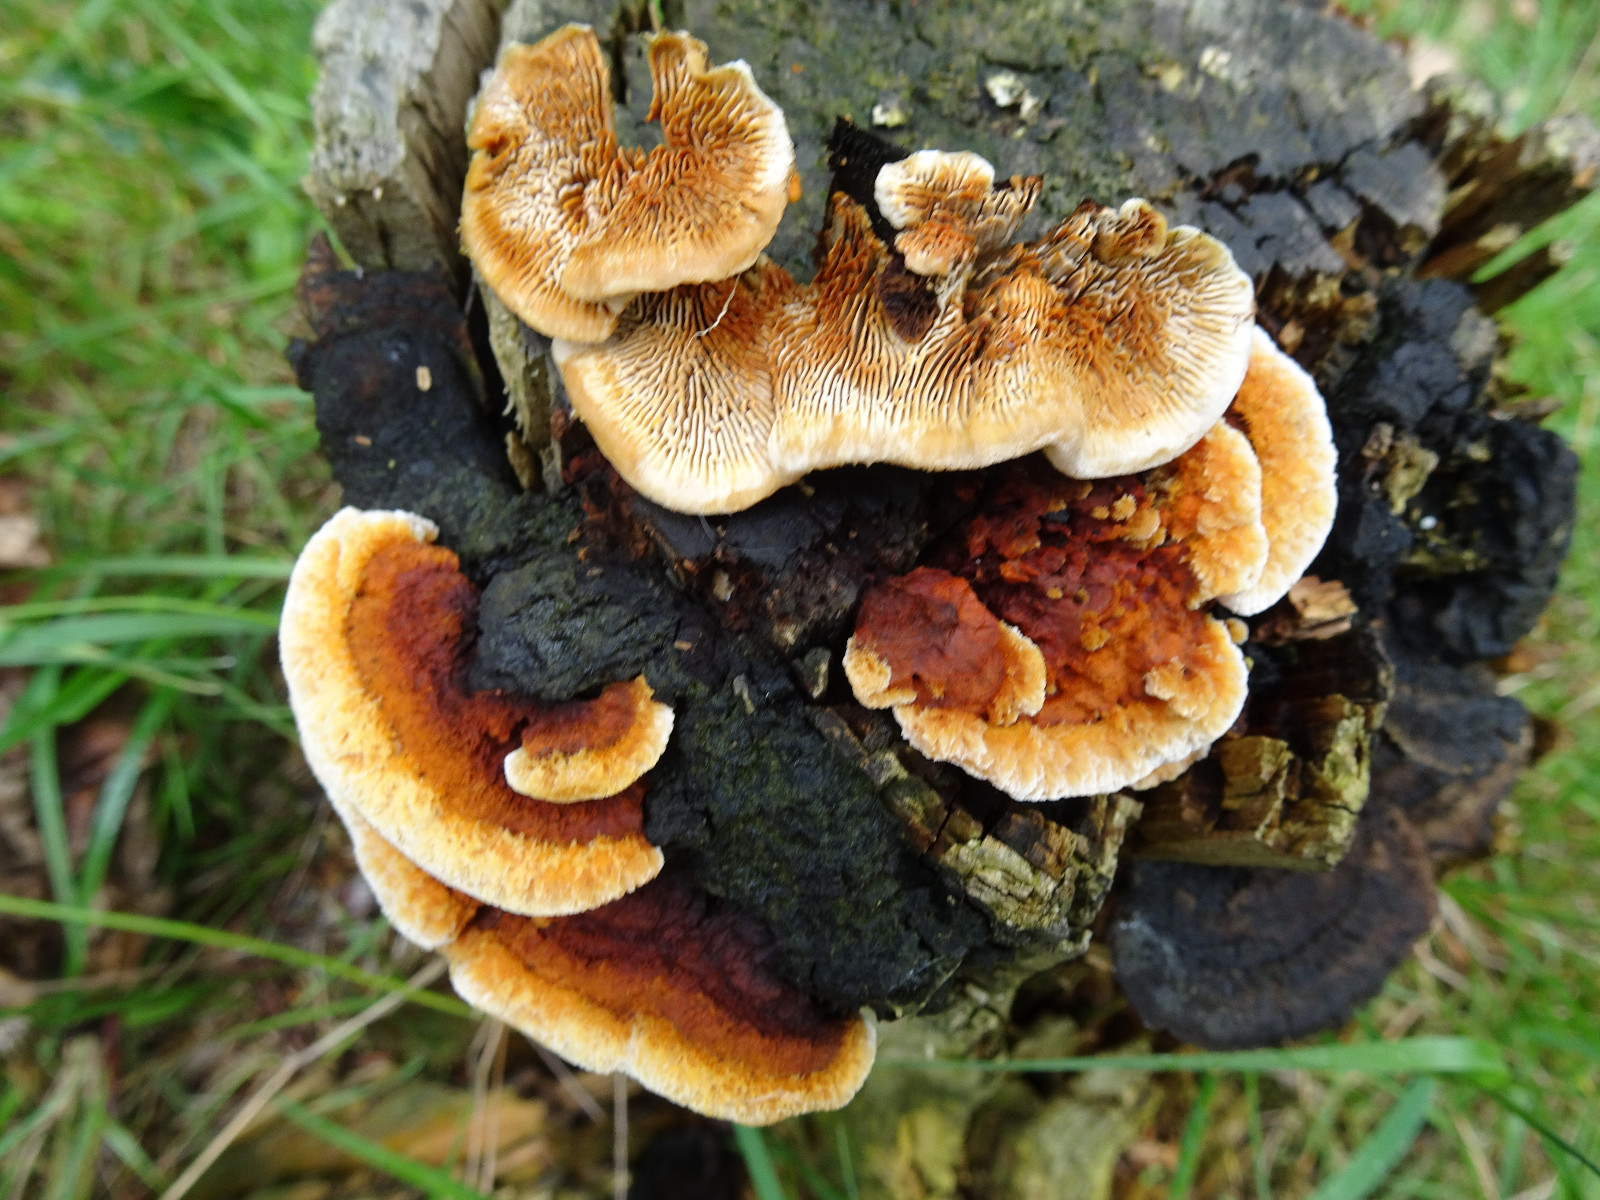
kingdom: Fungi
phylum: Basidiomycota
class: Agaricomycetes
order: Gloeophyllales
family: Gloeophyllaceae
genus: Gloeophyllum
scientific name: Gloeophyllum sepiarium
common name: fyrre-korkhat
